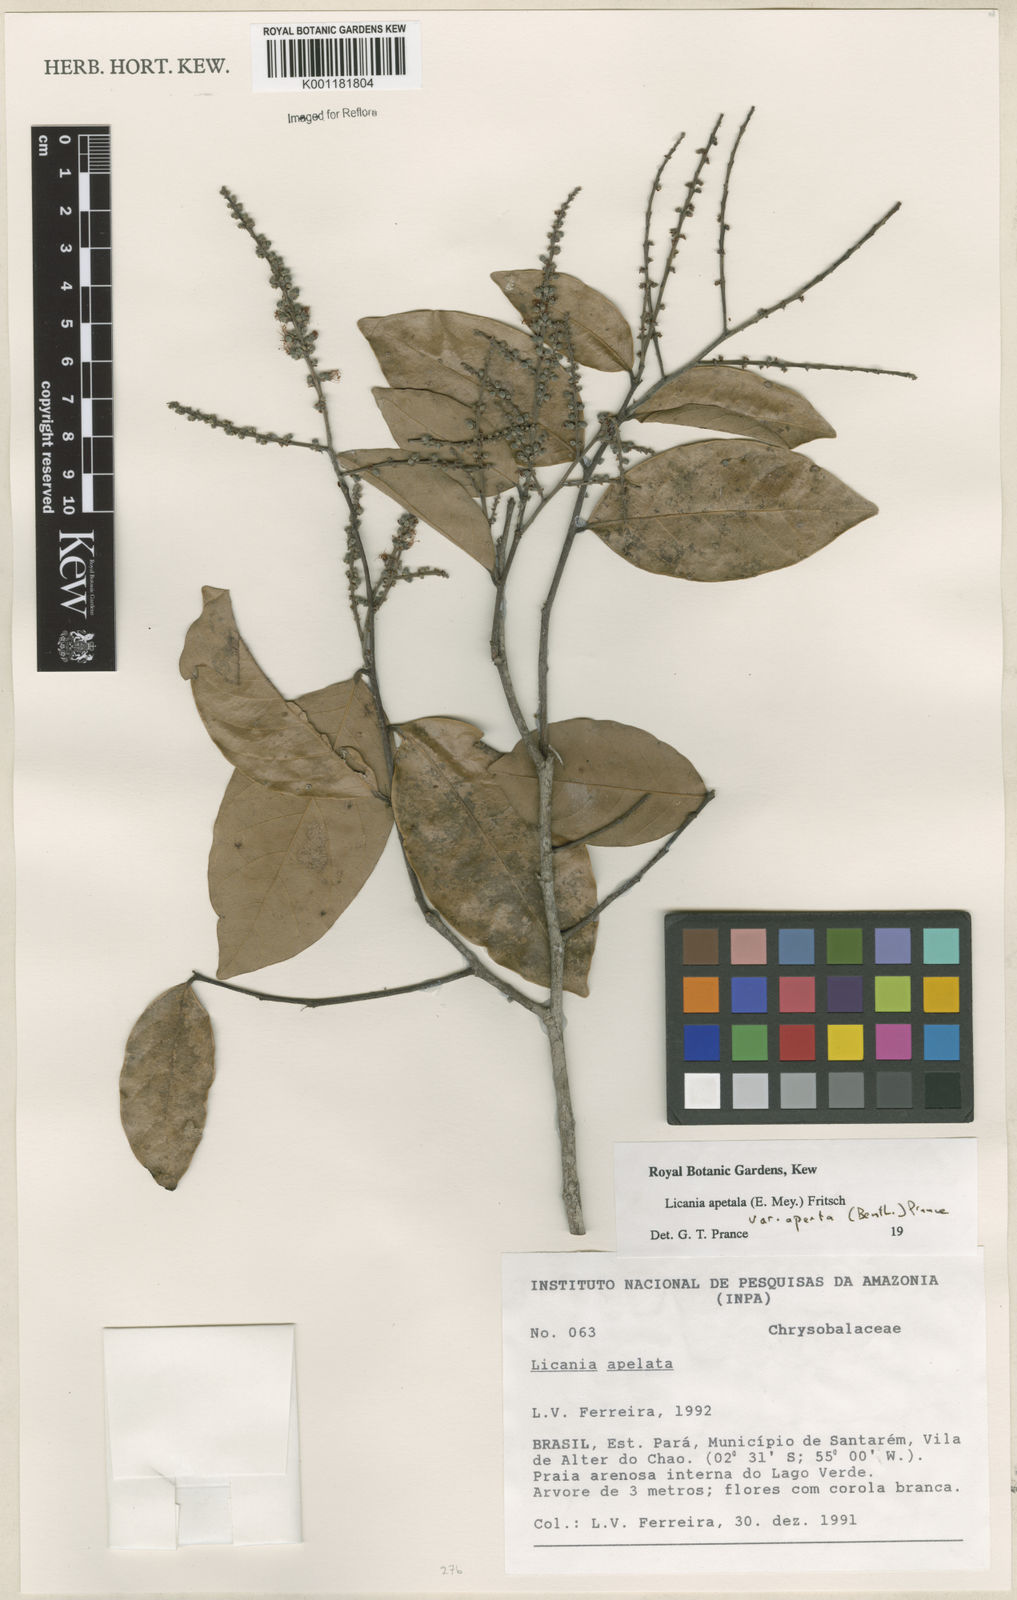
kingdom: Plantae
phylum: Tracheophyta
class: Magnoliopsida
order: Malpighiales
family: Chrysobalanaceae
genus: Leptobalanus
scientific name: Leptobalanus apetalus
